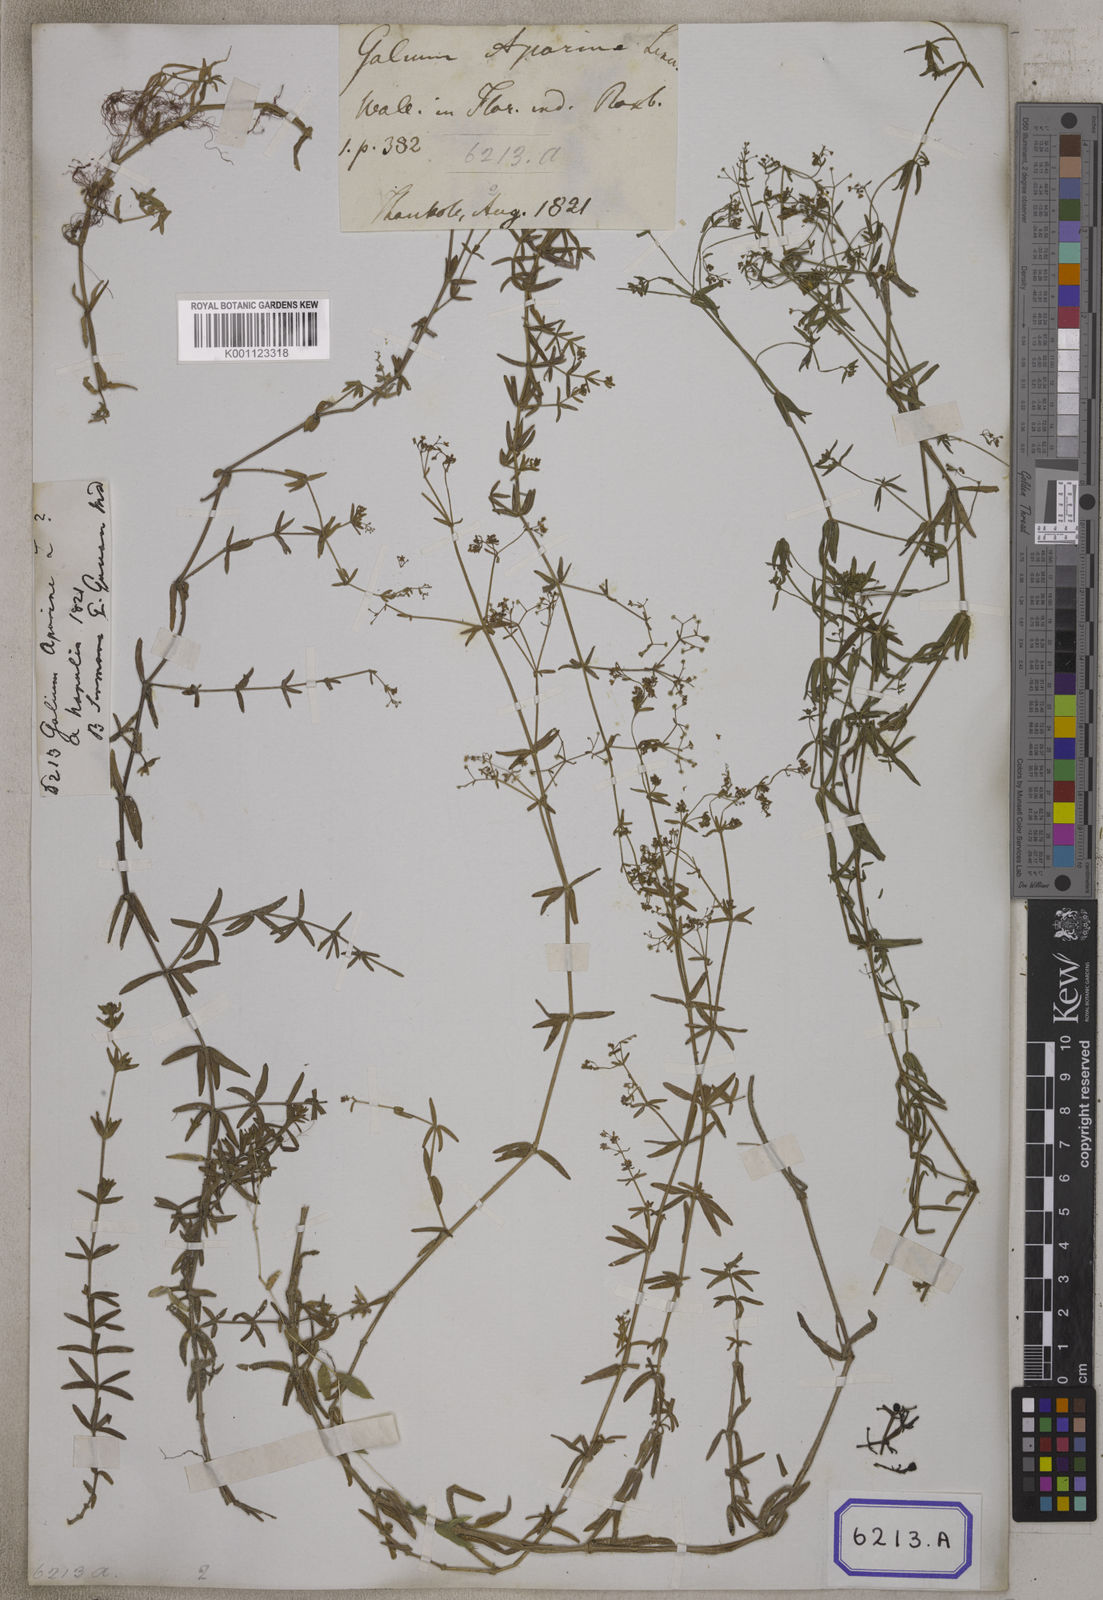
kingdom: Plantae
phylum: Tracheophyta
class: Magnoliopsida
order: Gentianales
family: Rubiaceae
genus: Galium
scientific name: Galium aparine
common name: Cleavers
